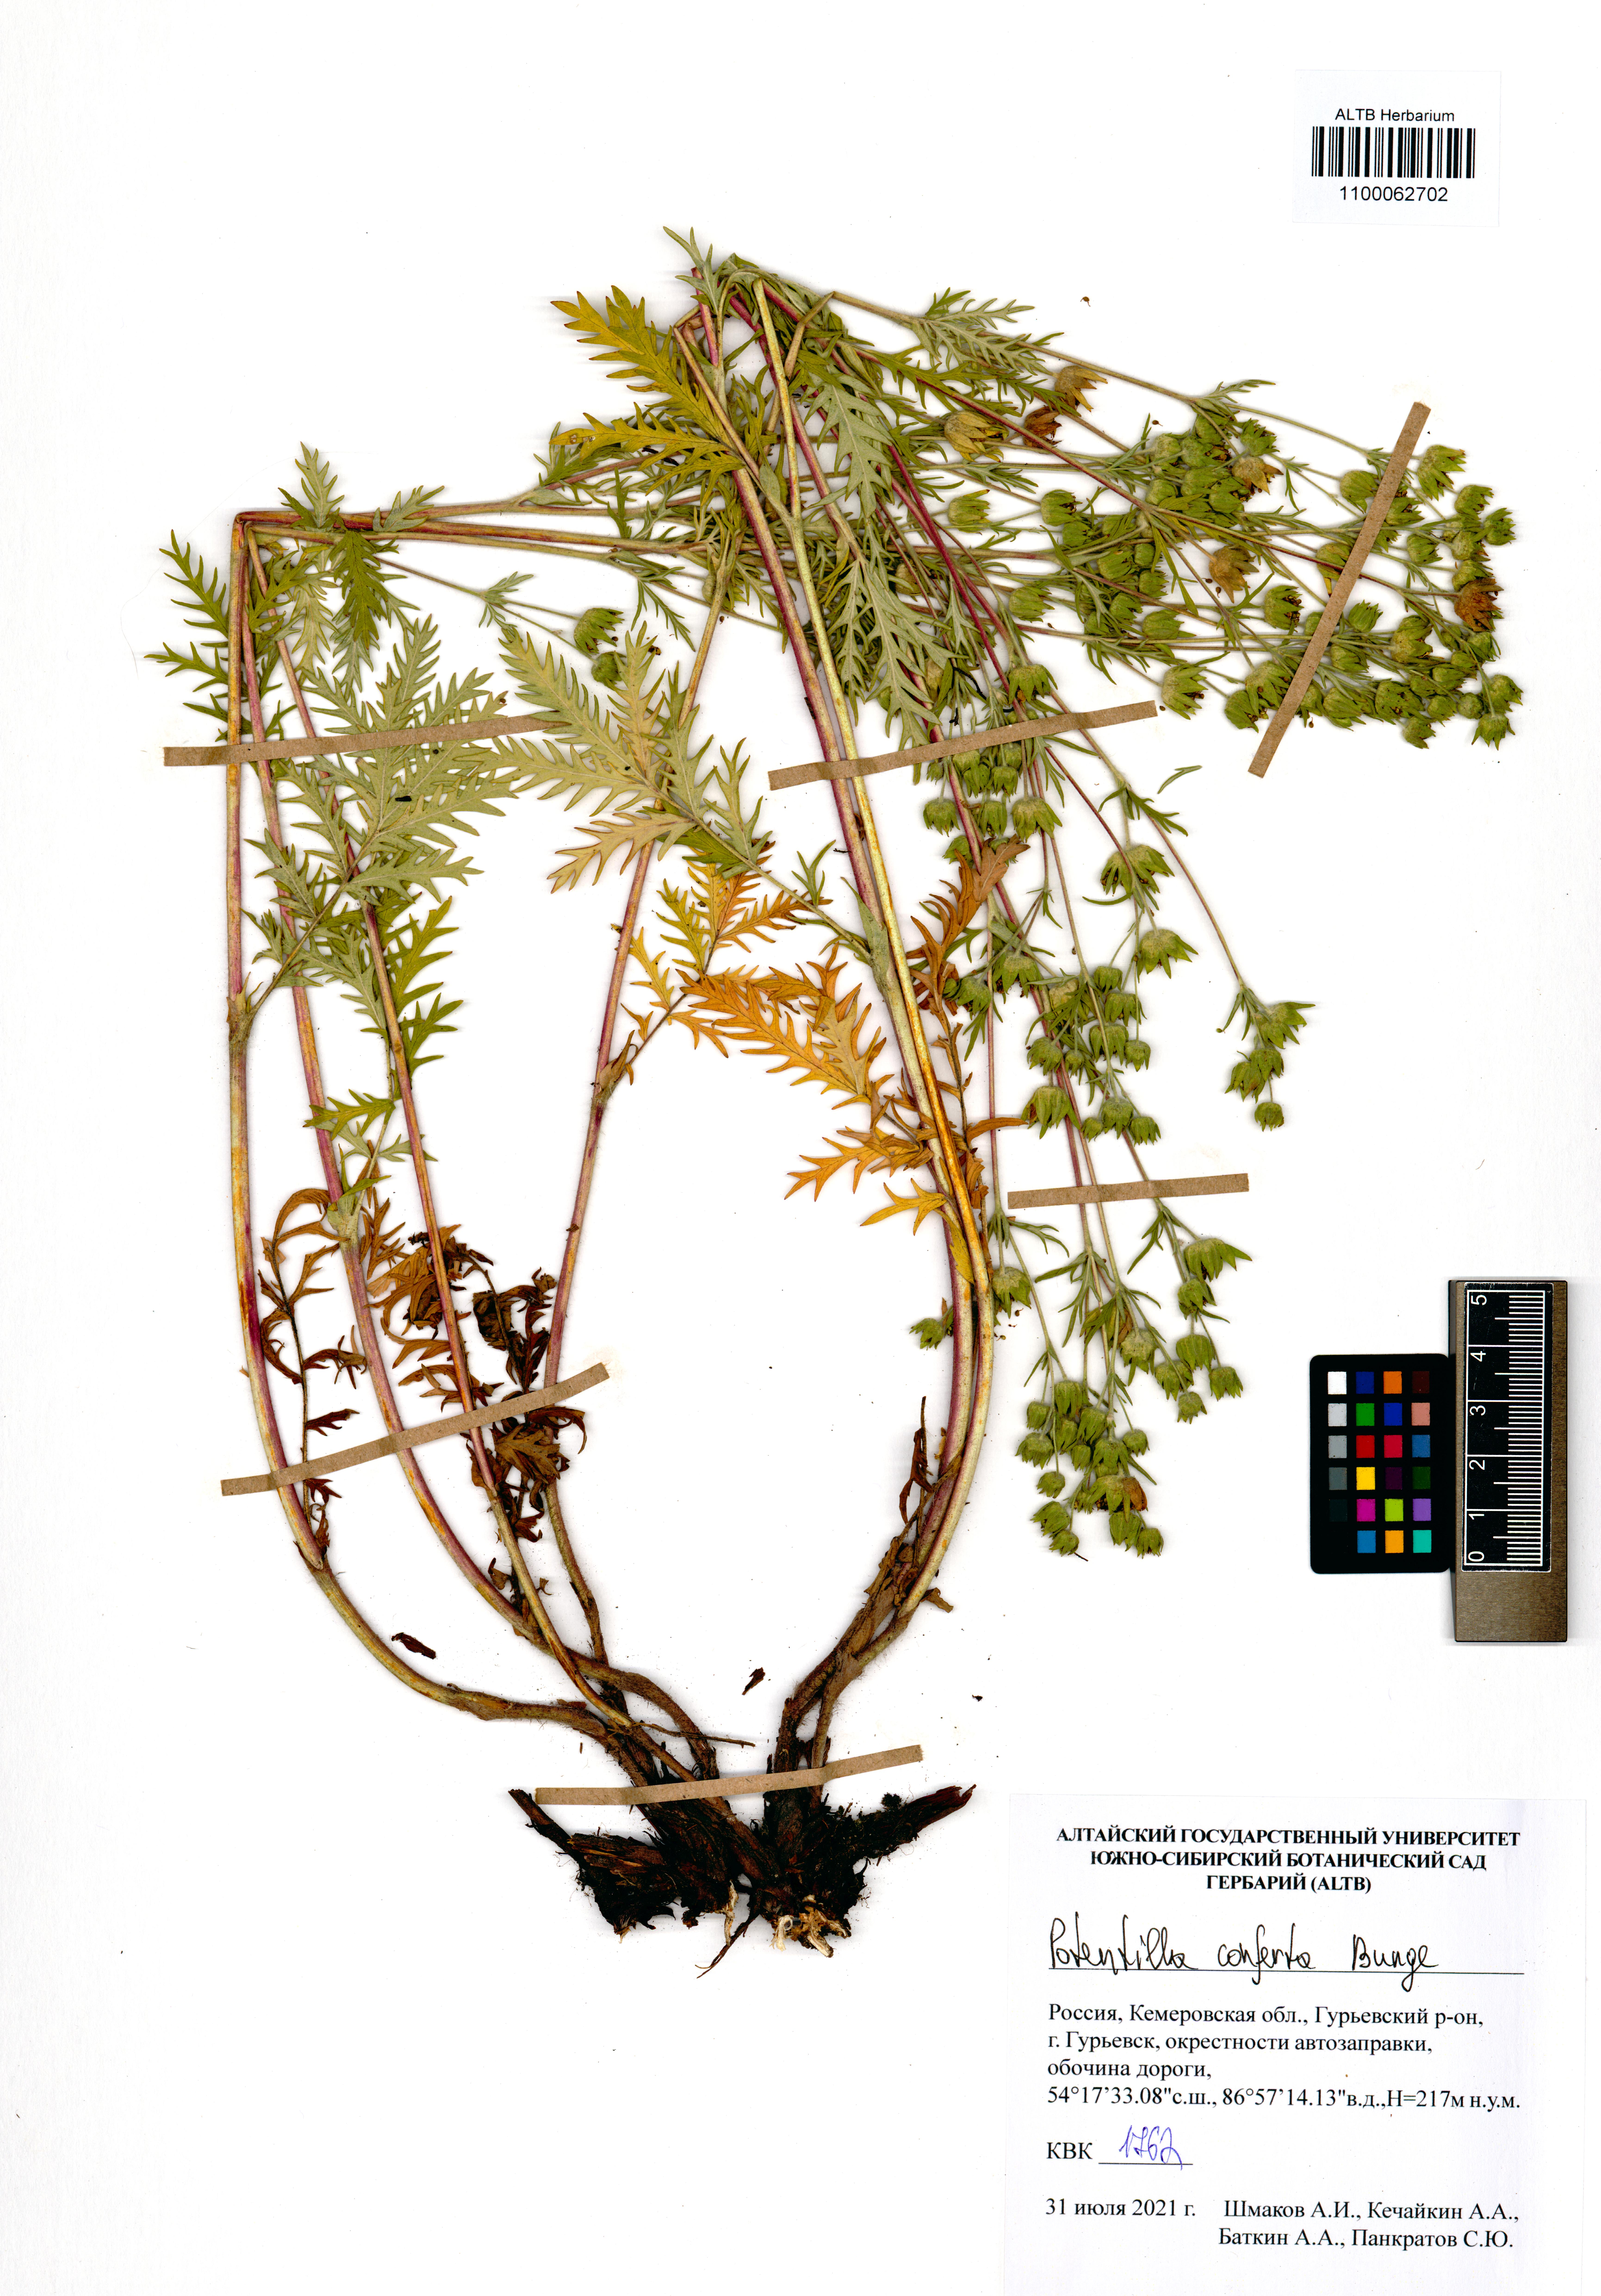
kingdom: Plantae
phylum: Tracheophyta
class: Magnoliopsida
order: Rosales
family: Rosaceae
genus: Potentilla
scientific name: Potentilla conferta
